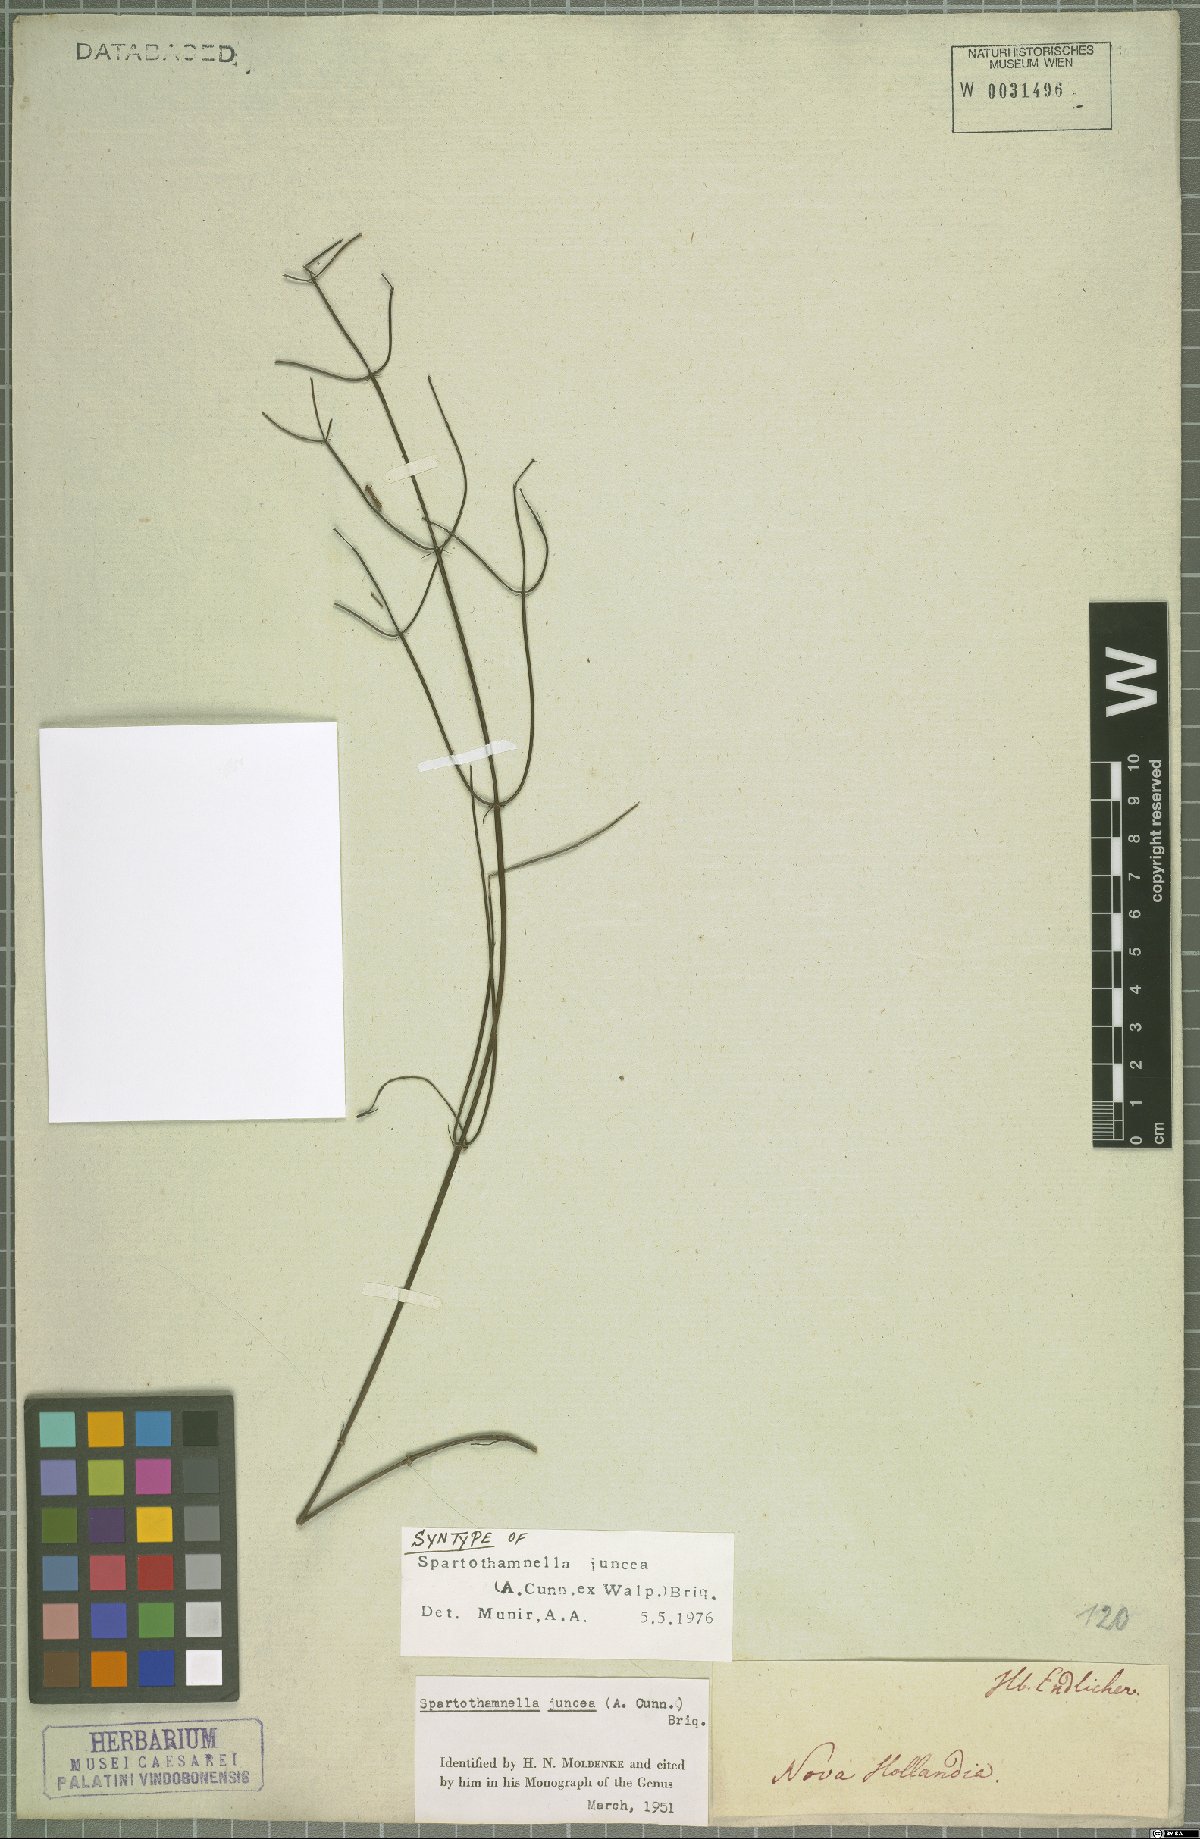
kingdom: Plantae
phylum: Tracheophyta
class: Magnoliopsida
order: Lamiales
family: Lamiaceae
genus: Teucrium
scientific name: Teucrium junceum
